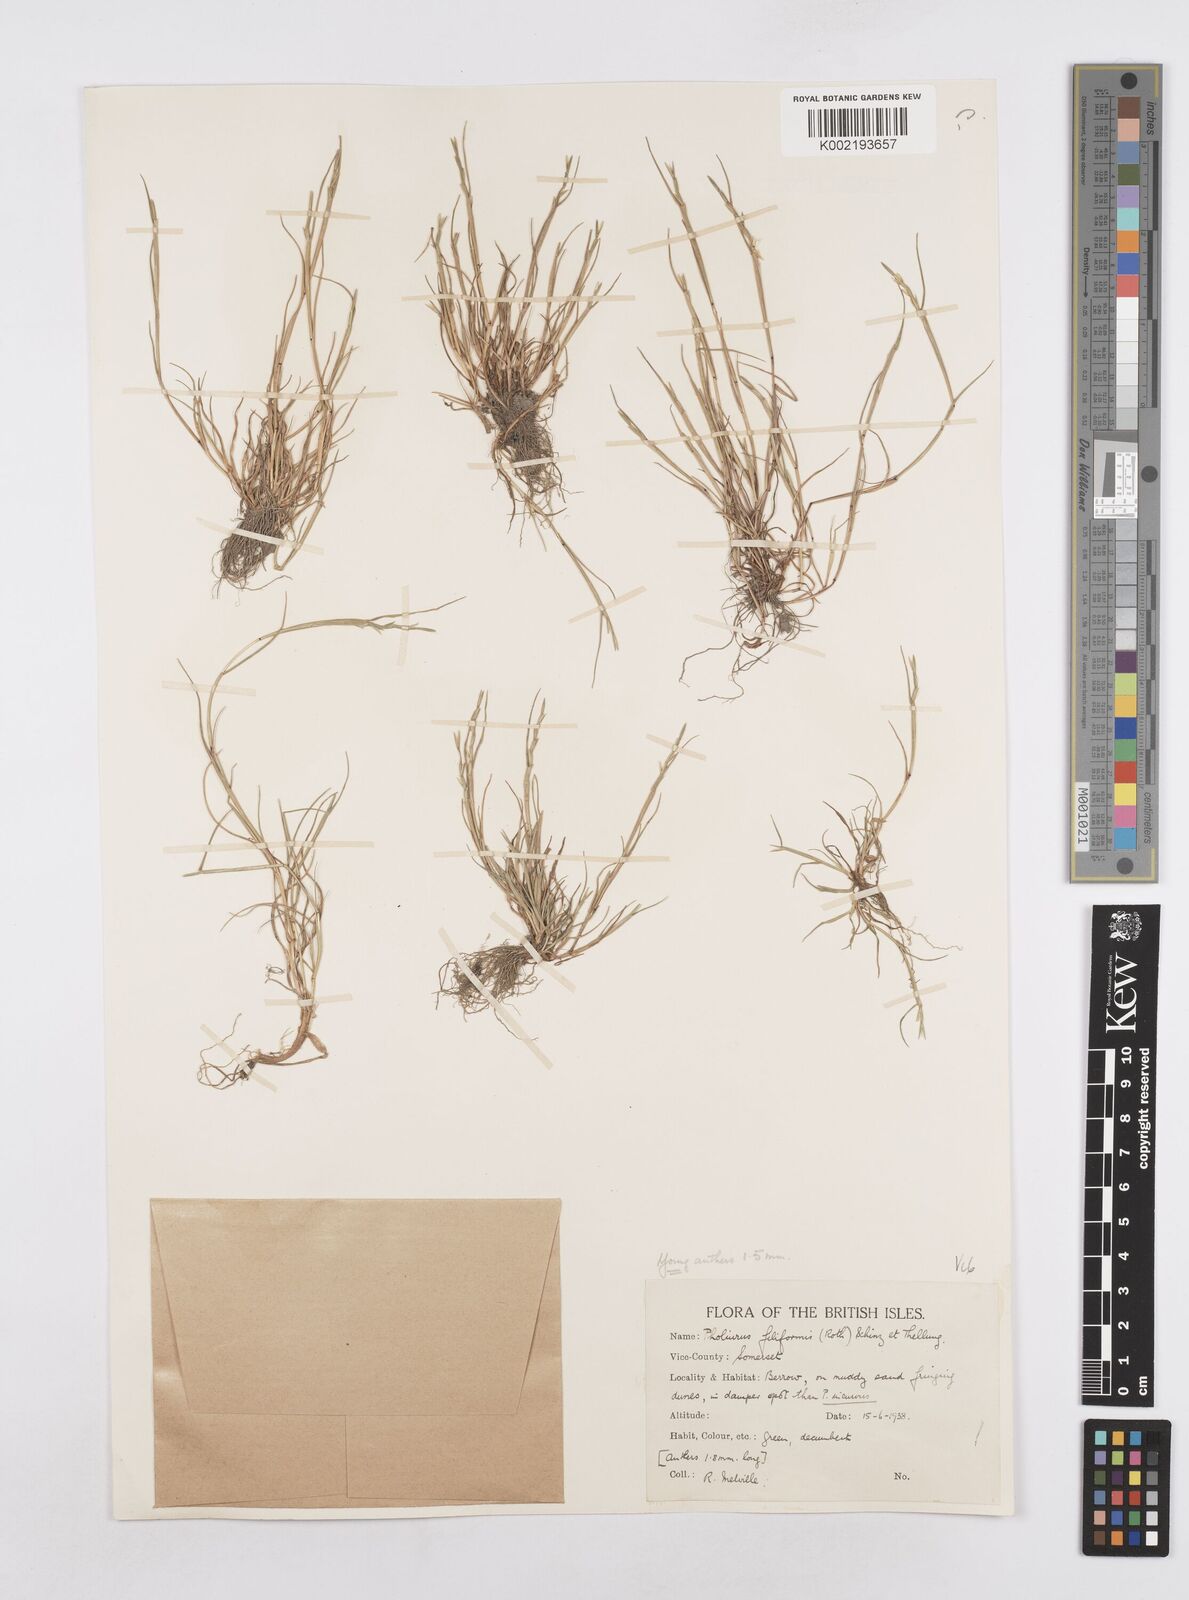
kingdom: Plantae
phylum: Tracheophyta
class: Liliopsida
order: Poales
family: Poaceae
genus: Parapholis
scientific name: Parapholis strigosa
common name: Hard-grass
